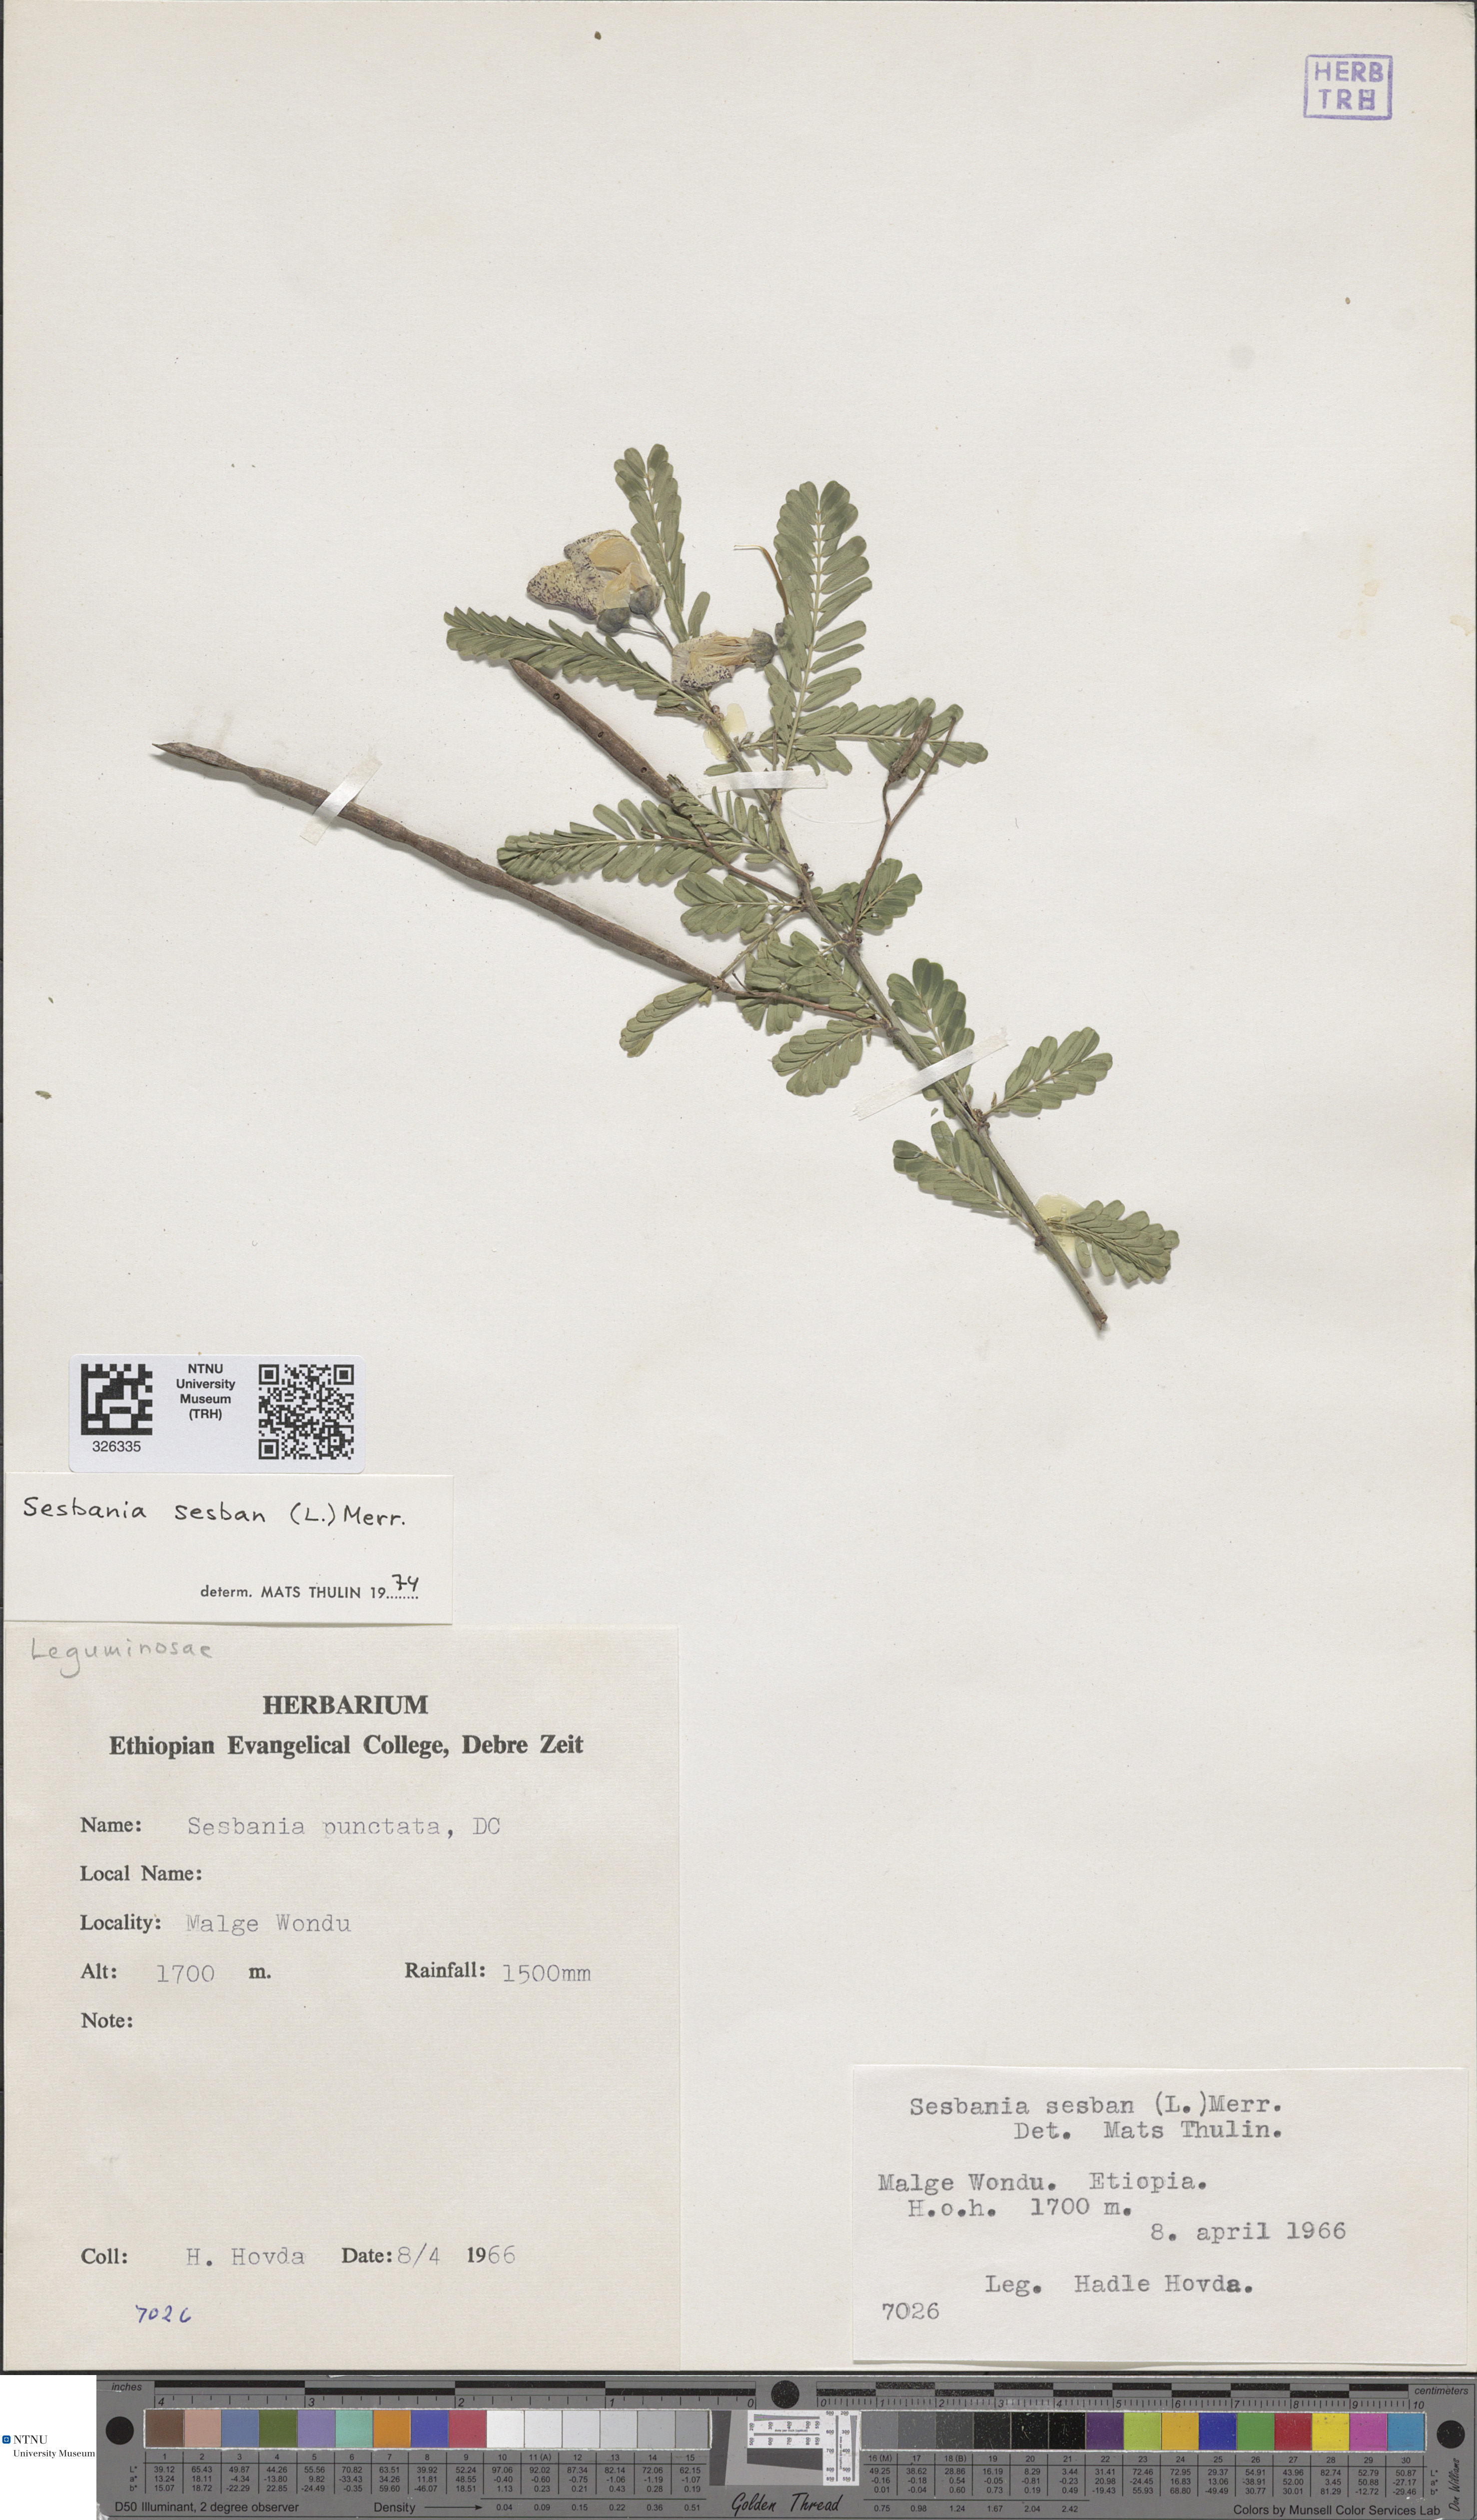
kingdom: Plantae
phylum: Tracheophyta
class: Magnoliopsida
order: Fabales
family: Fabaceae
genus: Sesbania
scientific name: Sesbania sesban
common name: Egyptian sesban
